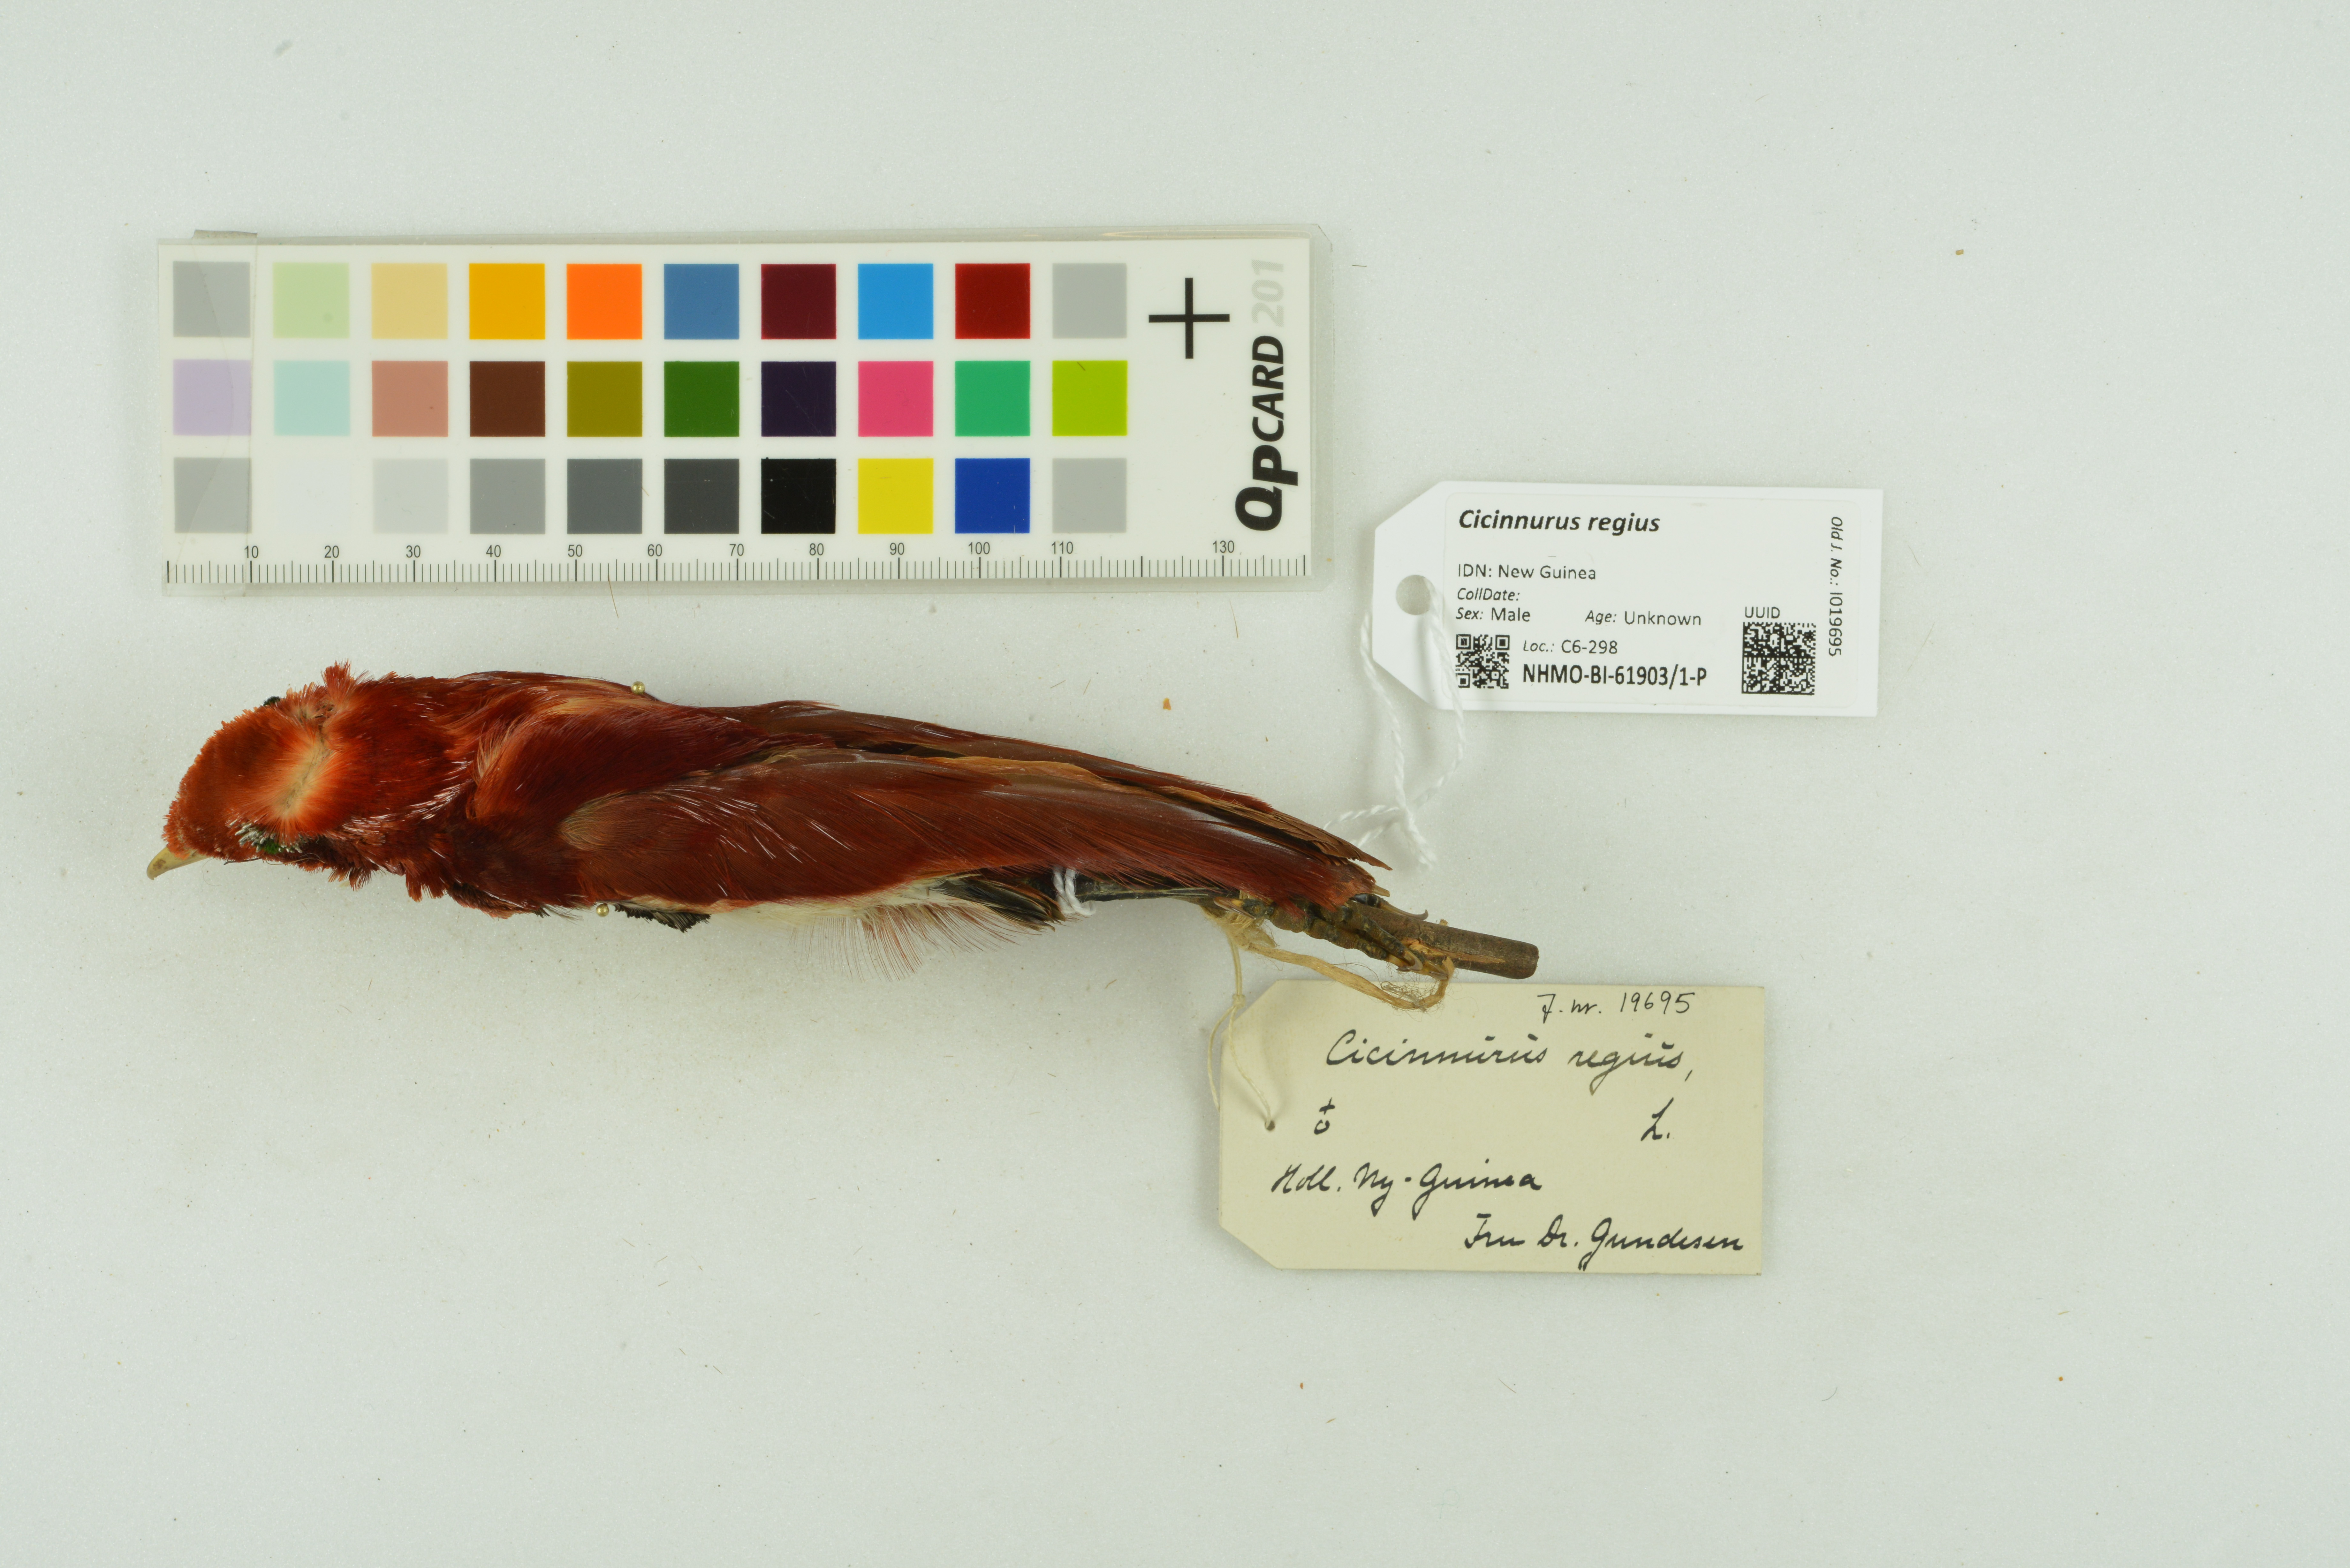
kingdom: Animalia
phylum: Chordata
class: Aves
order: Passeriformes
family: Paradisaeidae
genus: Cicinnurus
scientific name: Cicinnurus regius
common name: King bird-of-paradise
